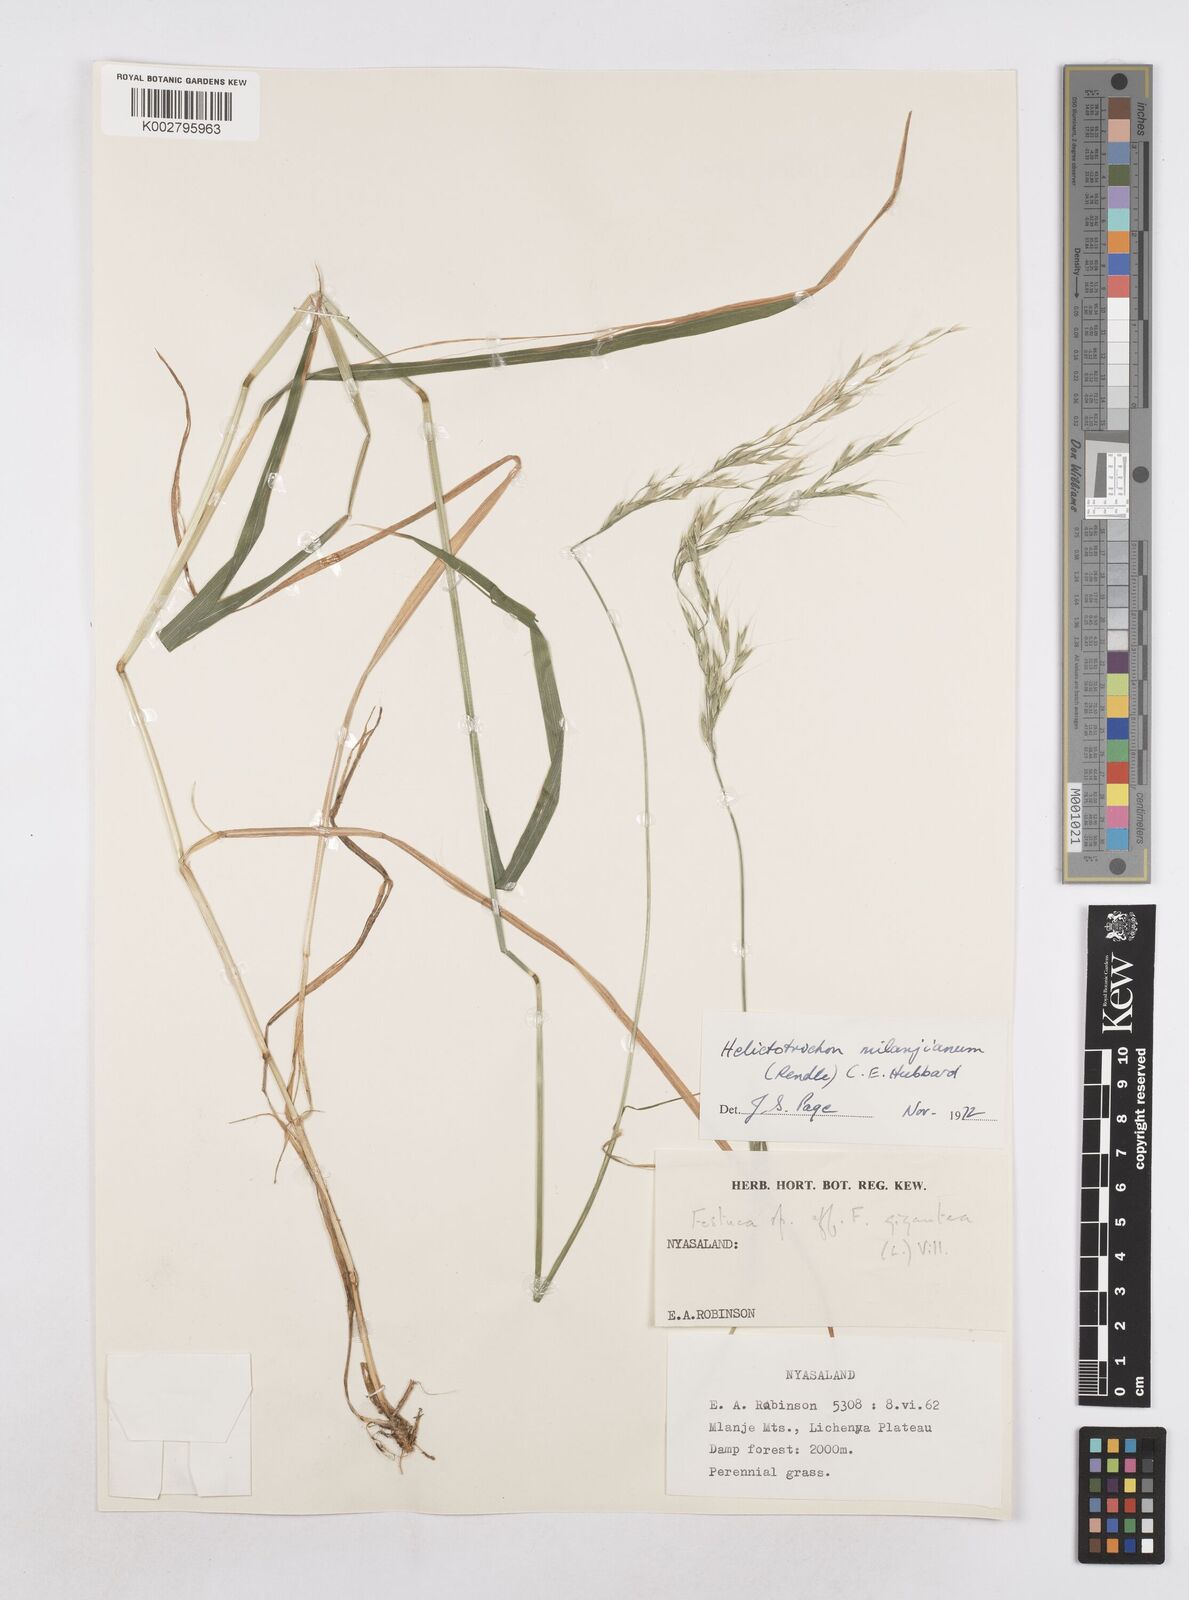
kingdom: Plantae
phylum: Tracheophyta
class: Liliopsida
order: Poales
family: Poaceae
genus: Trisetopsis
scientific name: Trisetopsis milanjiana
